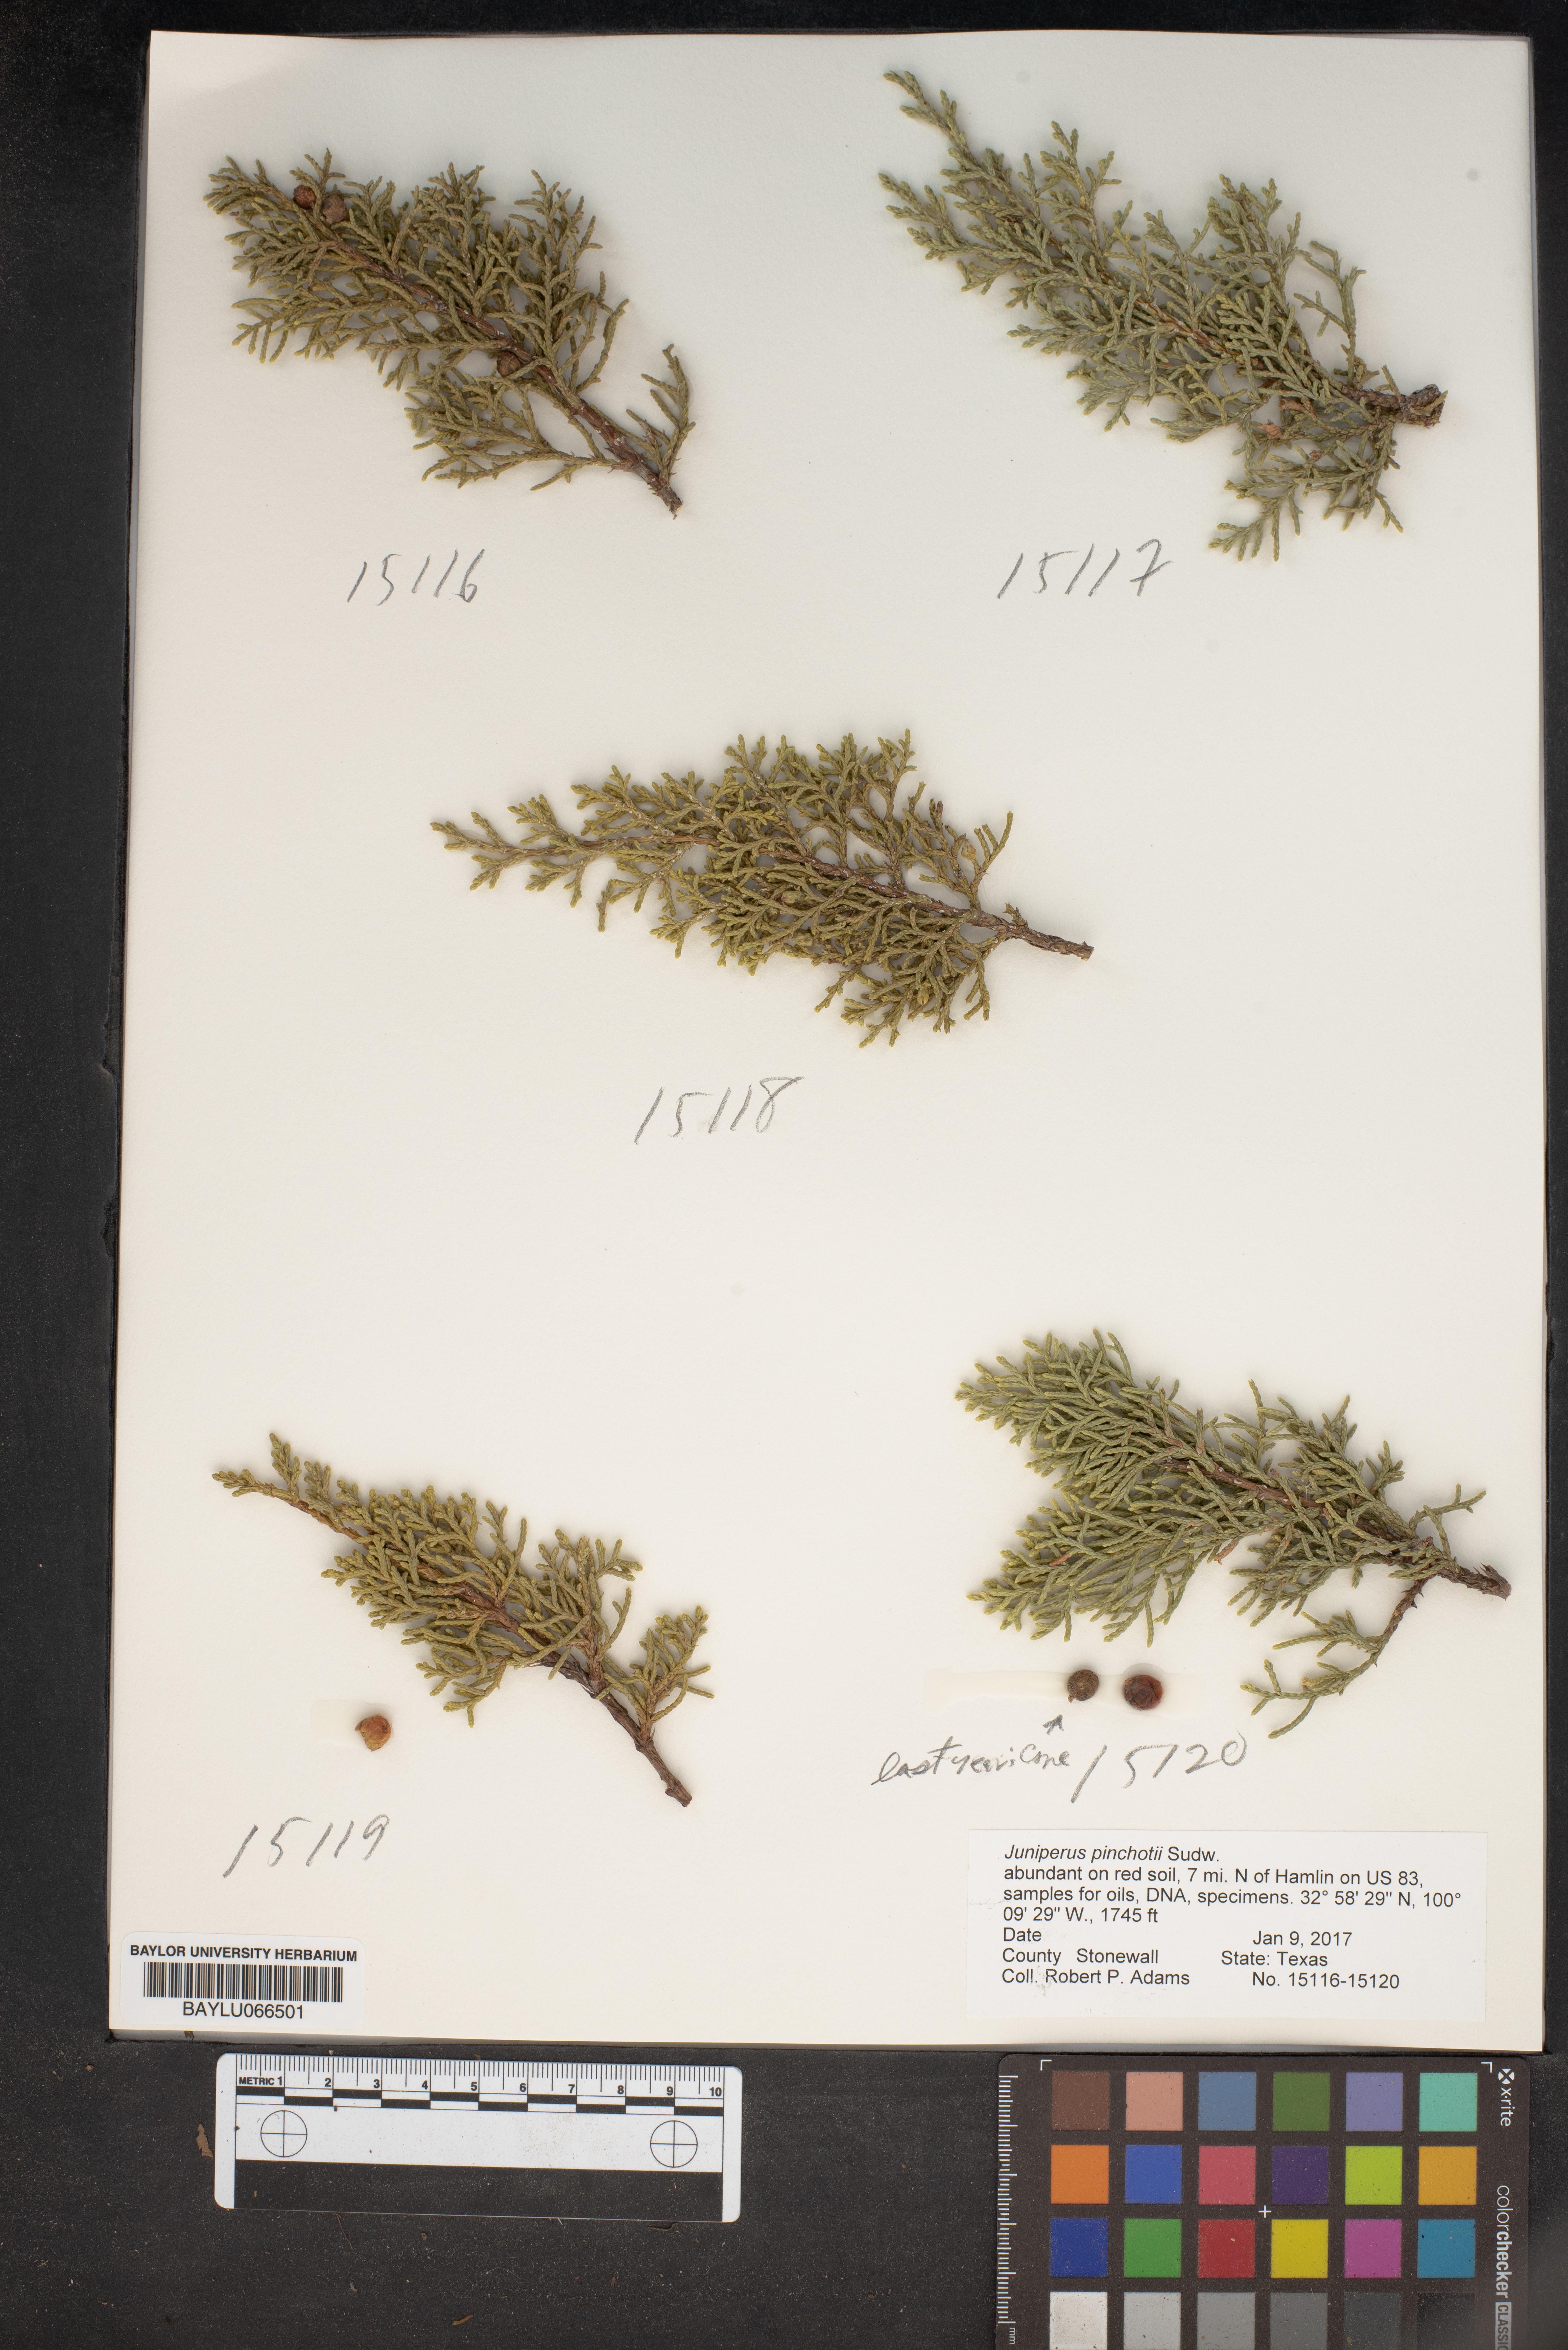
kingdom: Plantae
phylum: Tracheophyta
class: Pinopsida
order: Pinales
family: Cupressaceae
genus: Juniperus
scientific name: Juniperus pinchotii
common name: Pinchot juniper
